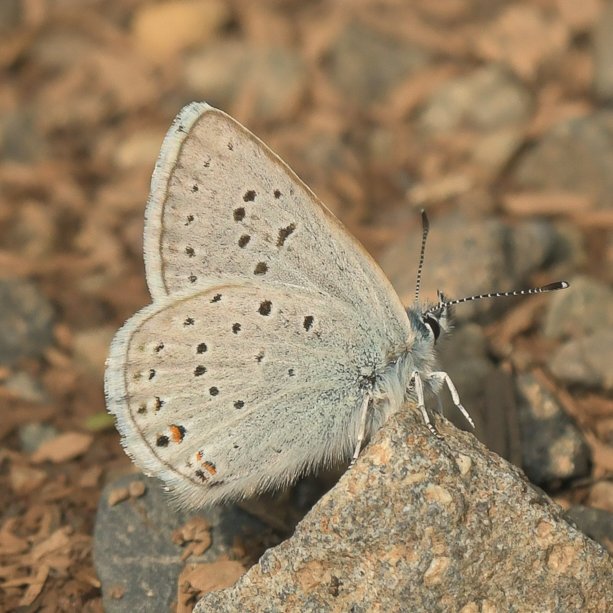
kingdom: Animalia
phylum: Arthropoda
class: Insecta
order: Lepidoptera
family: Lycaenidae
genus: Plebejus
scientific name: Plebejus saepiolus
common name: Greenish Blue
